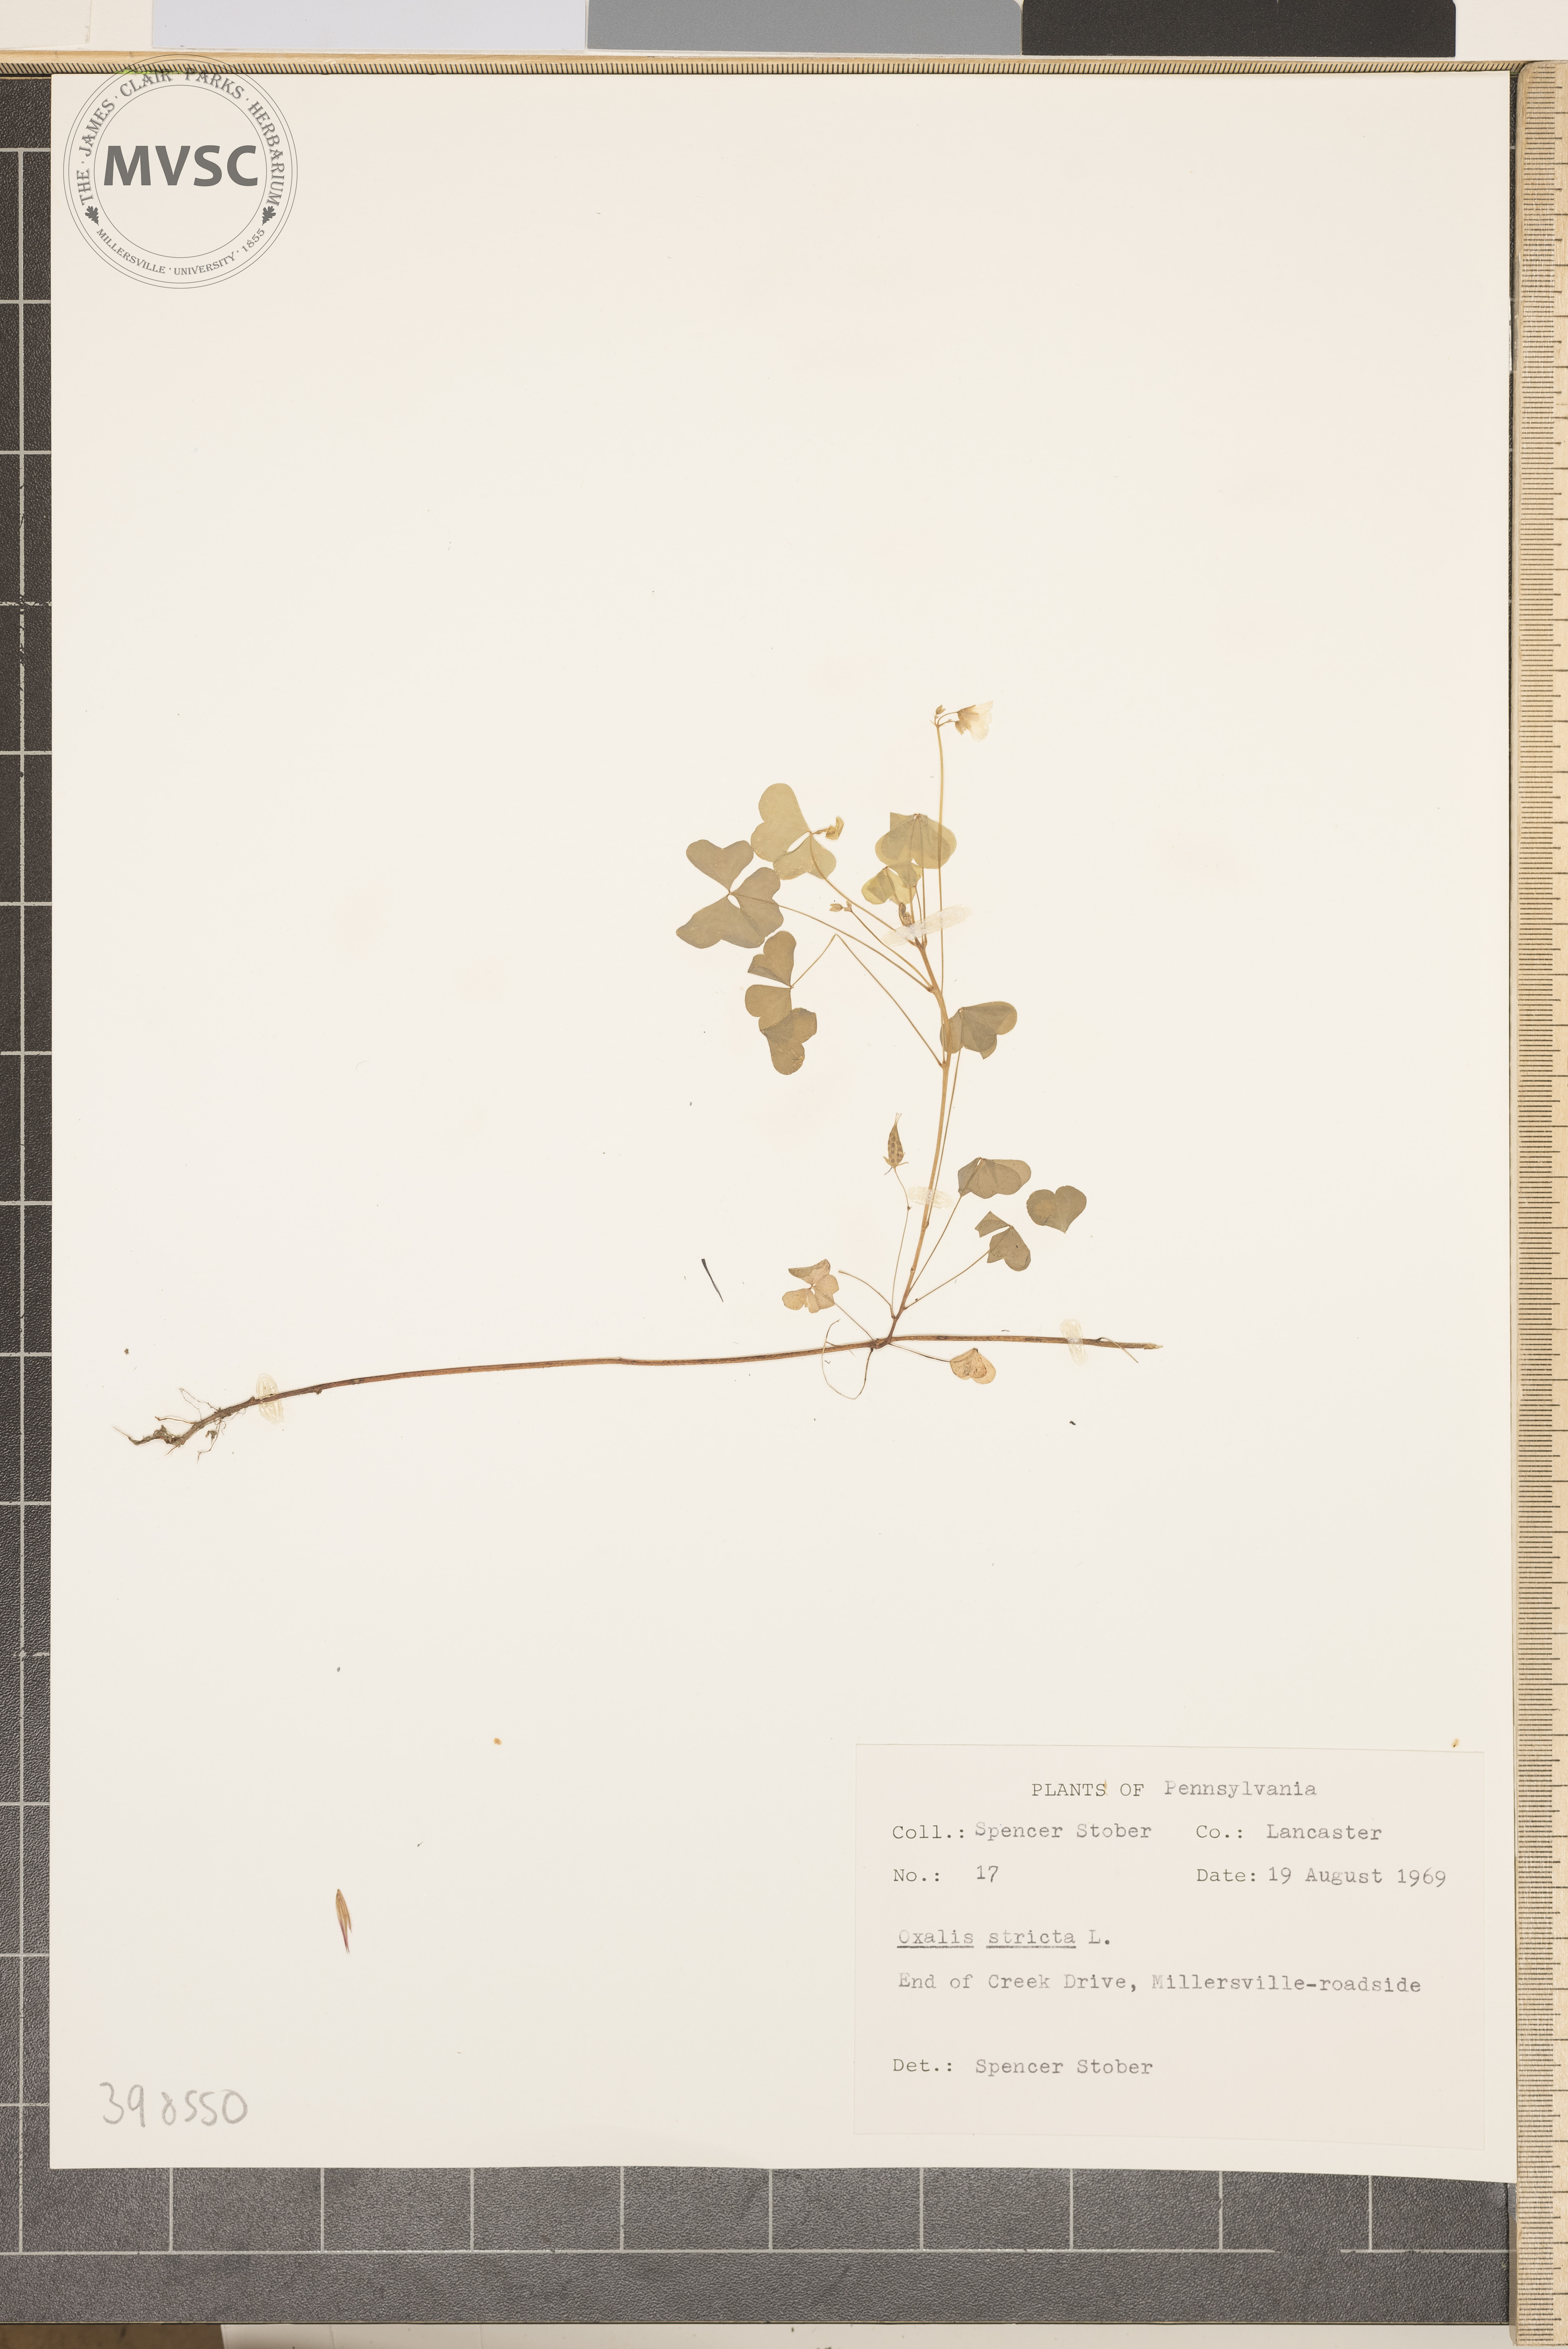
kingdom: Plantae
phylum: Tracheophyta
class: Magnoliopsida
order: Oxalidales
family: Oxalidaceae
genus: Oxalis
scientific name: Oxalis stricta
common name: Common yellow wood-sorrel
